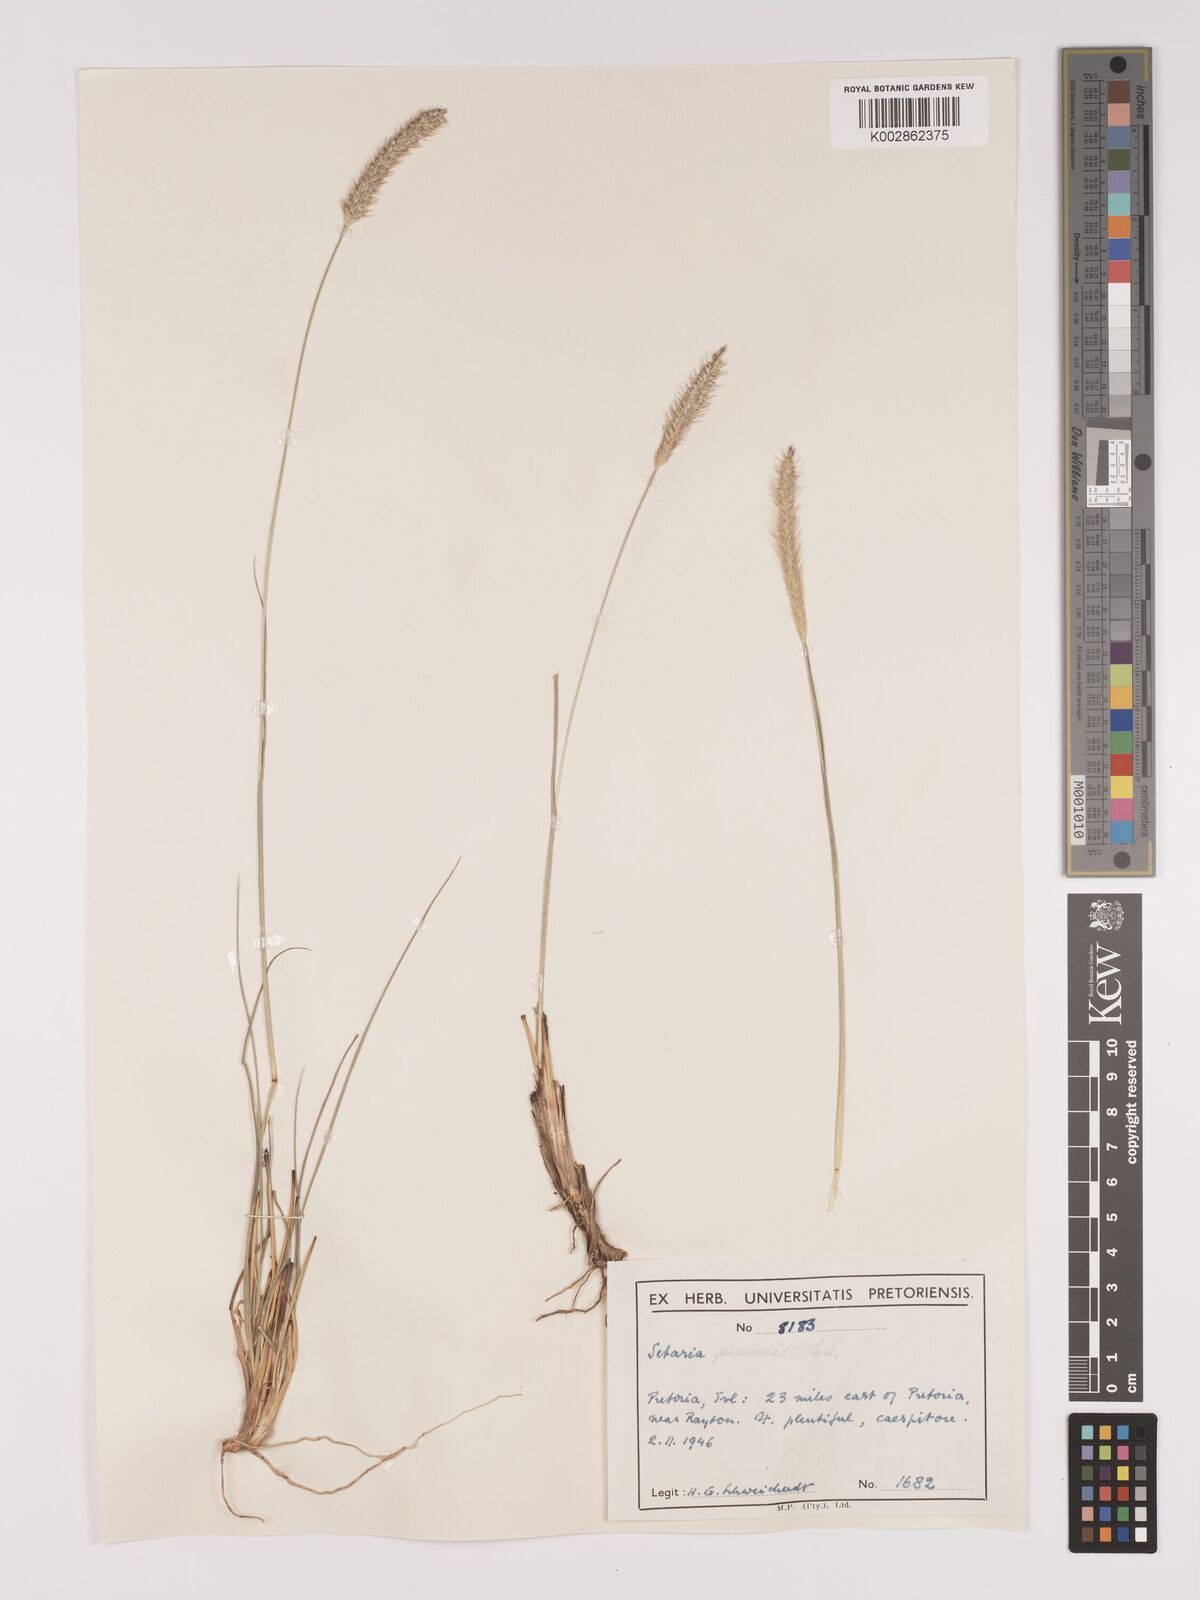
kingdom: Plantae
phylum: Tracheophyta
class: Liliopsida
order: Poales
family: Poaceae
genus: Setaria
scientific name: Setaria
